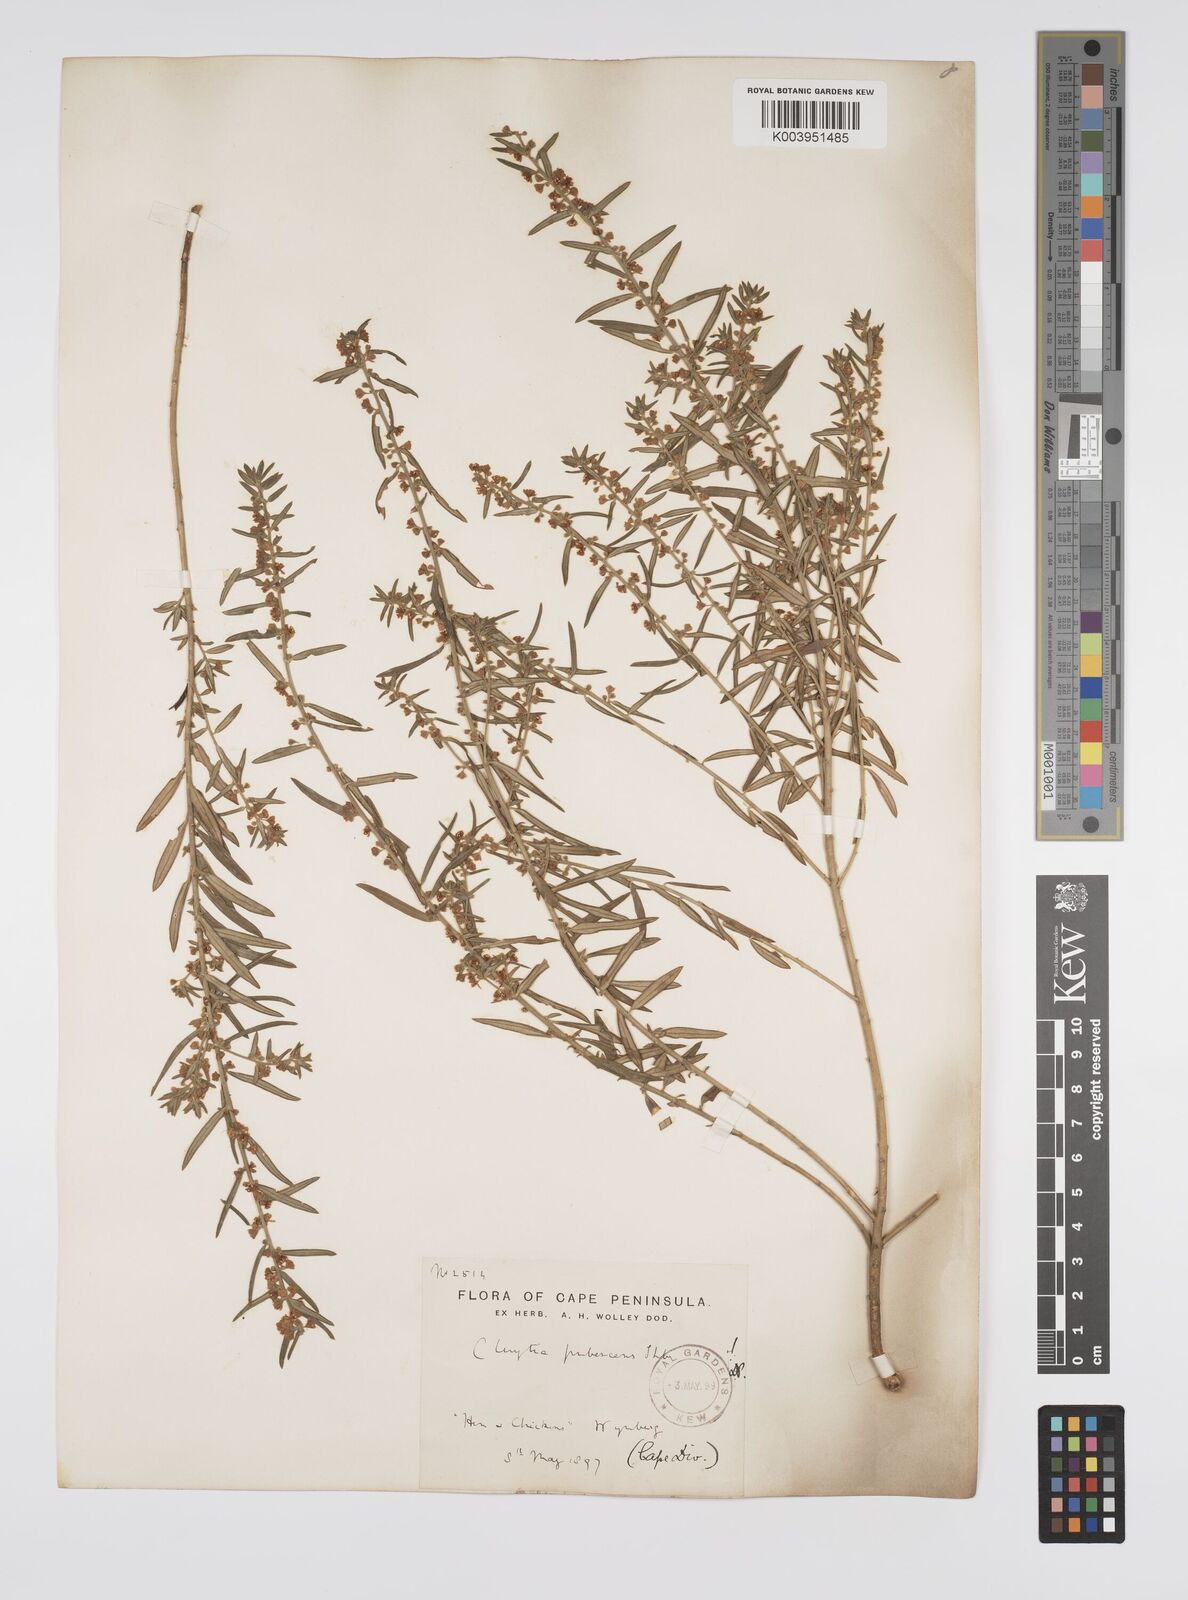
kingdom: Plantae
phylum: Tracheophyta
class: Magnoliopsida
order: Malpighiales
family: Peraceae
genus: Clutia
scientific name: Clutia
